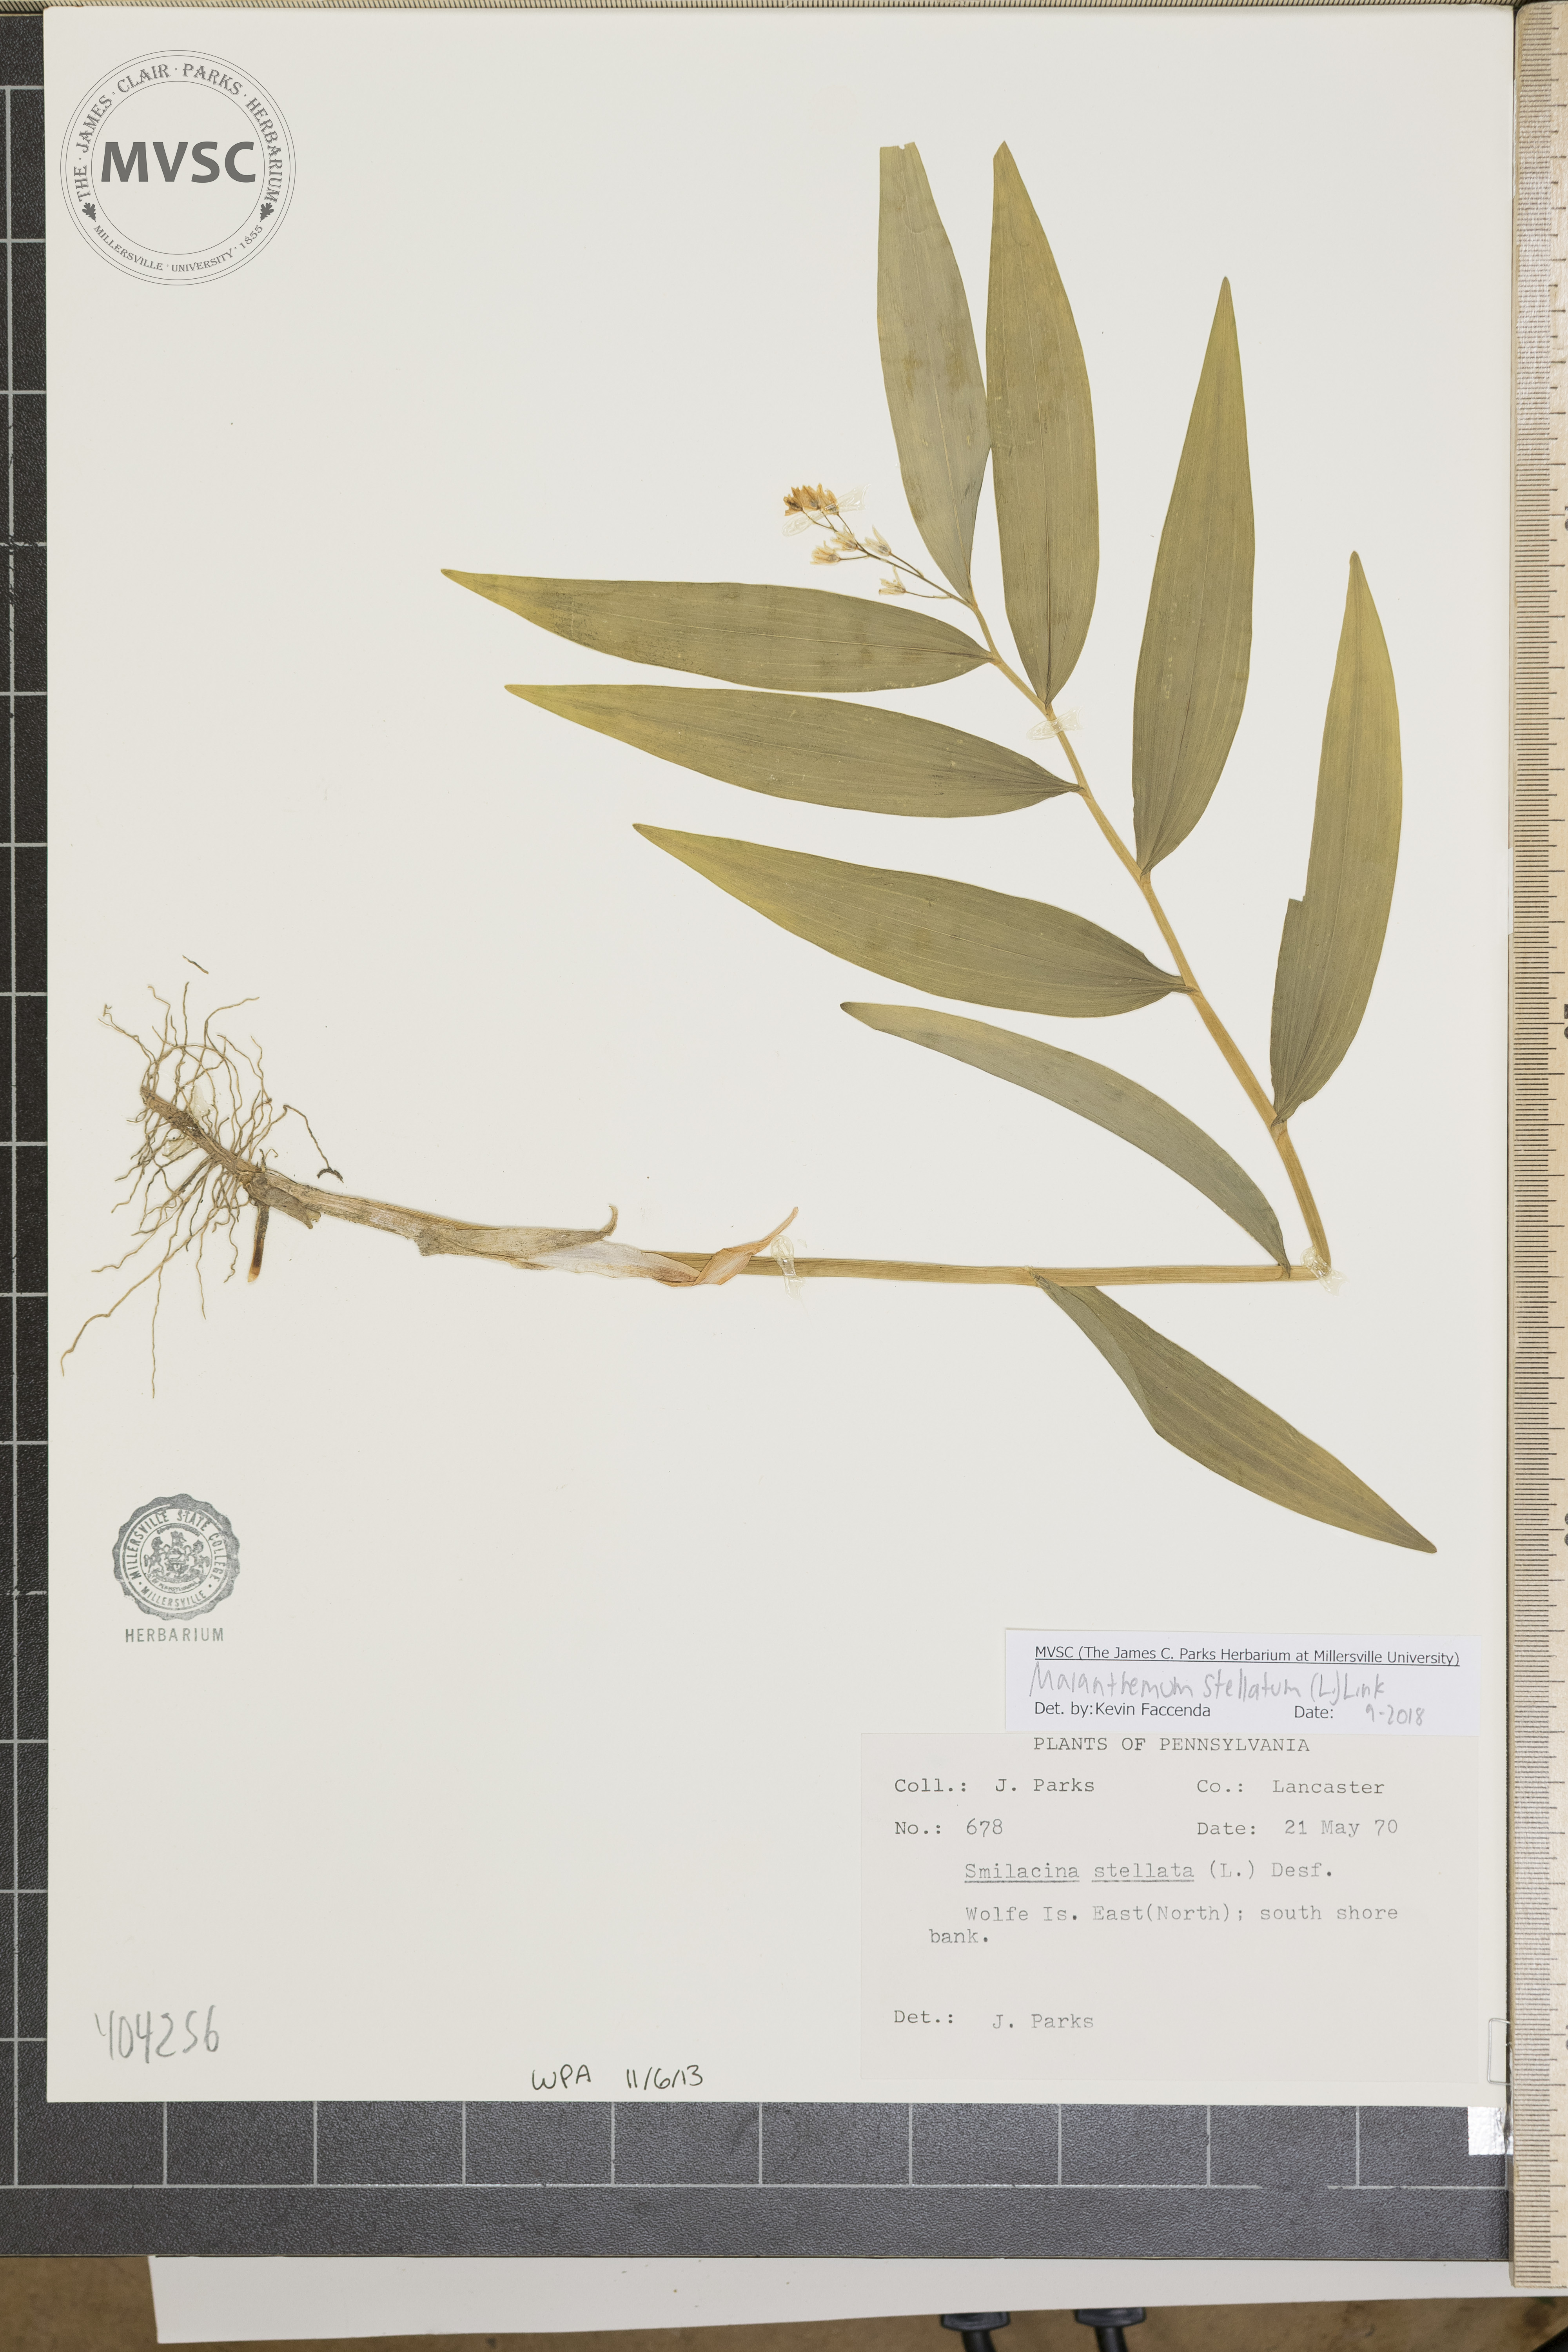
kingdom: Plantae
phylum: Tracheophyta
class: Liliopsida
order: Asparagales
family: Asparagaceae
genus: Maianthemum
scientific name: Maianthemum stellatum
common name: Little false solomon's seal
